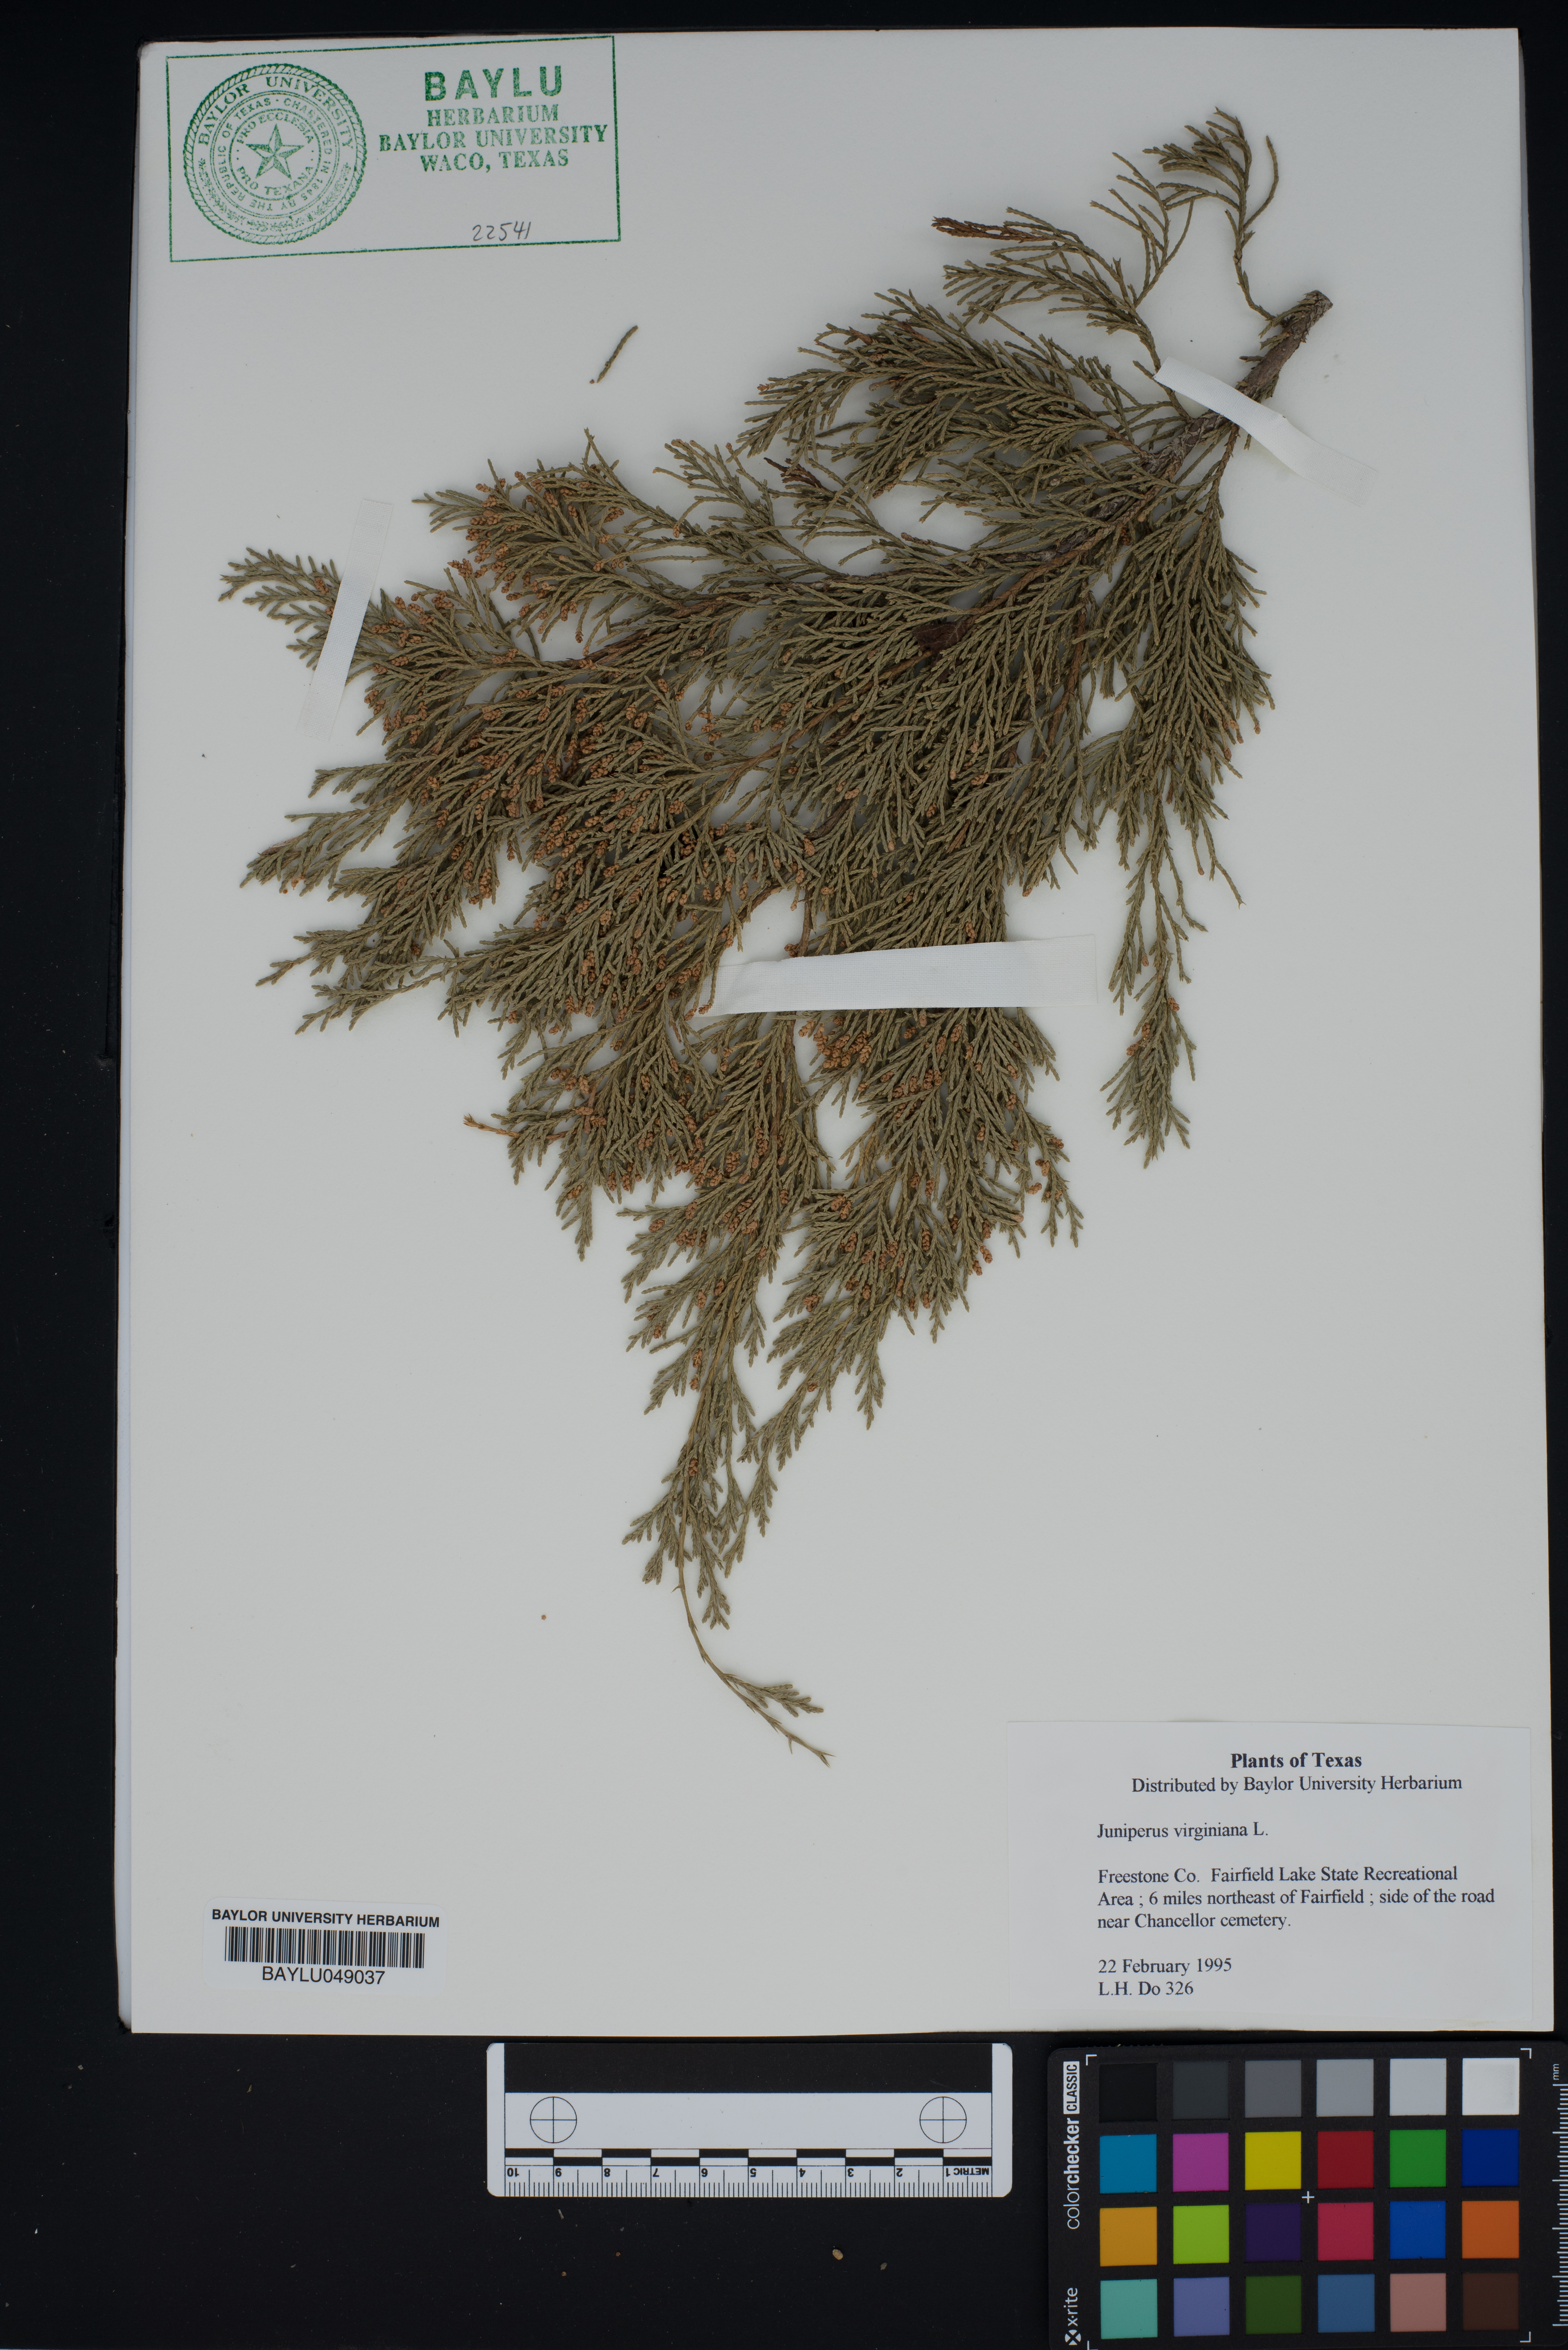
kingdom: Plantae
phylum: Tracheophyta
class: Pinopsida
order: Pinales
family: Cupressaceae
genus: Juniperus
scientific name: Juniperus virginiana
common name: Red juniper
